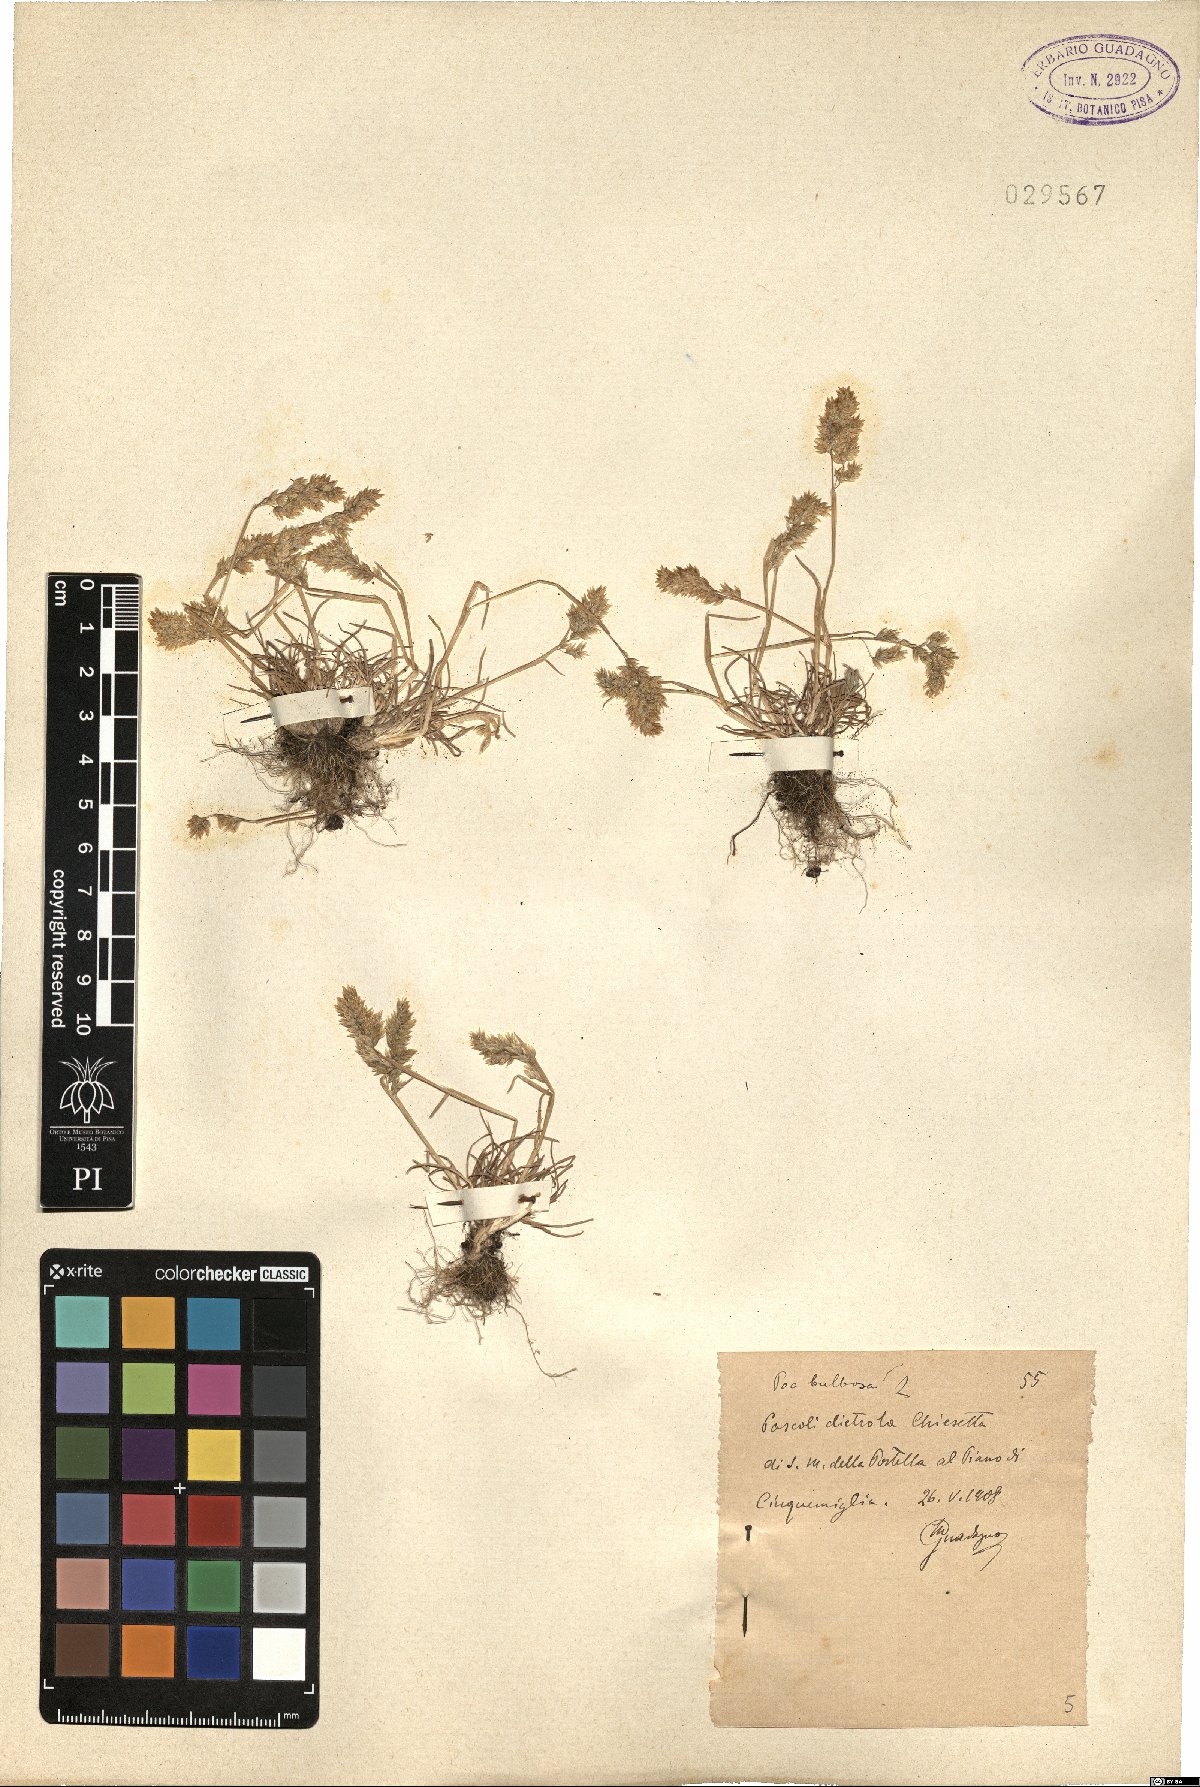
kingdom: Plantae
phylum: Tracheophyta
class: Liliopsida
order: Poales
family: Poaceae
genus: Poa
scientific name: Poa bulbosa
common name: Bulbous bluegrass
